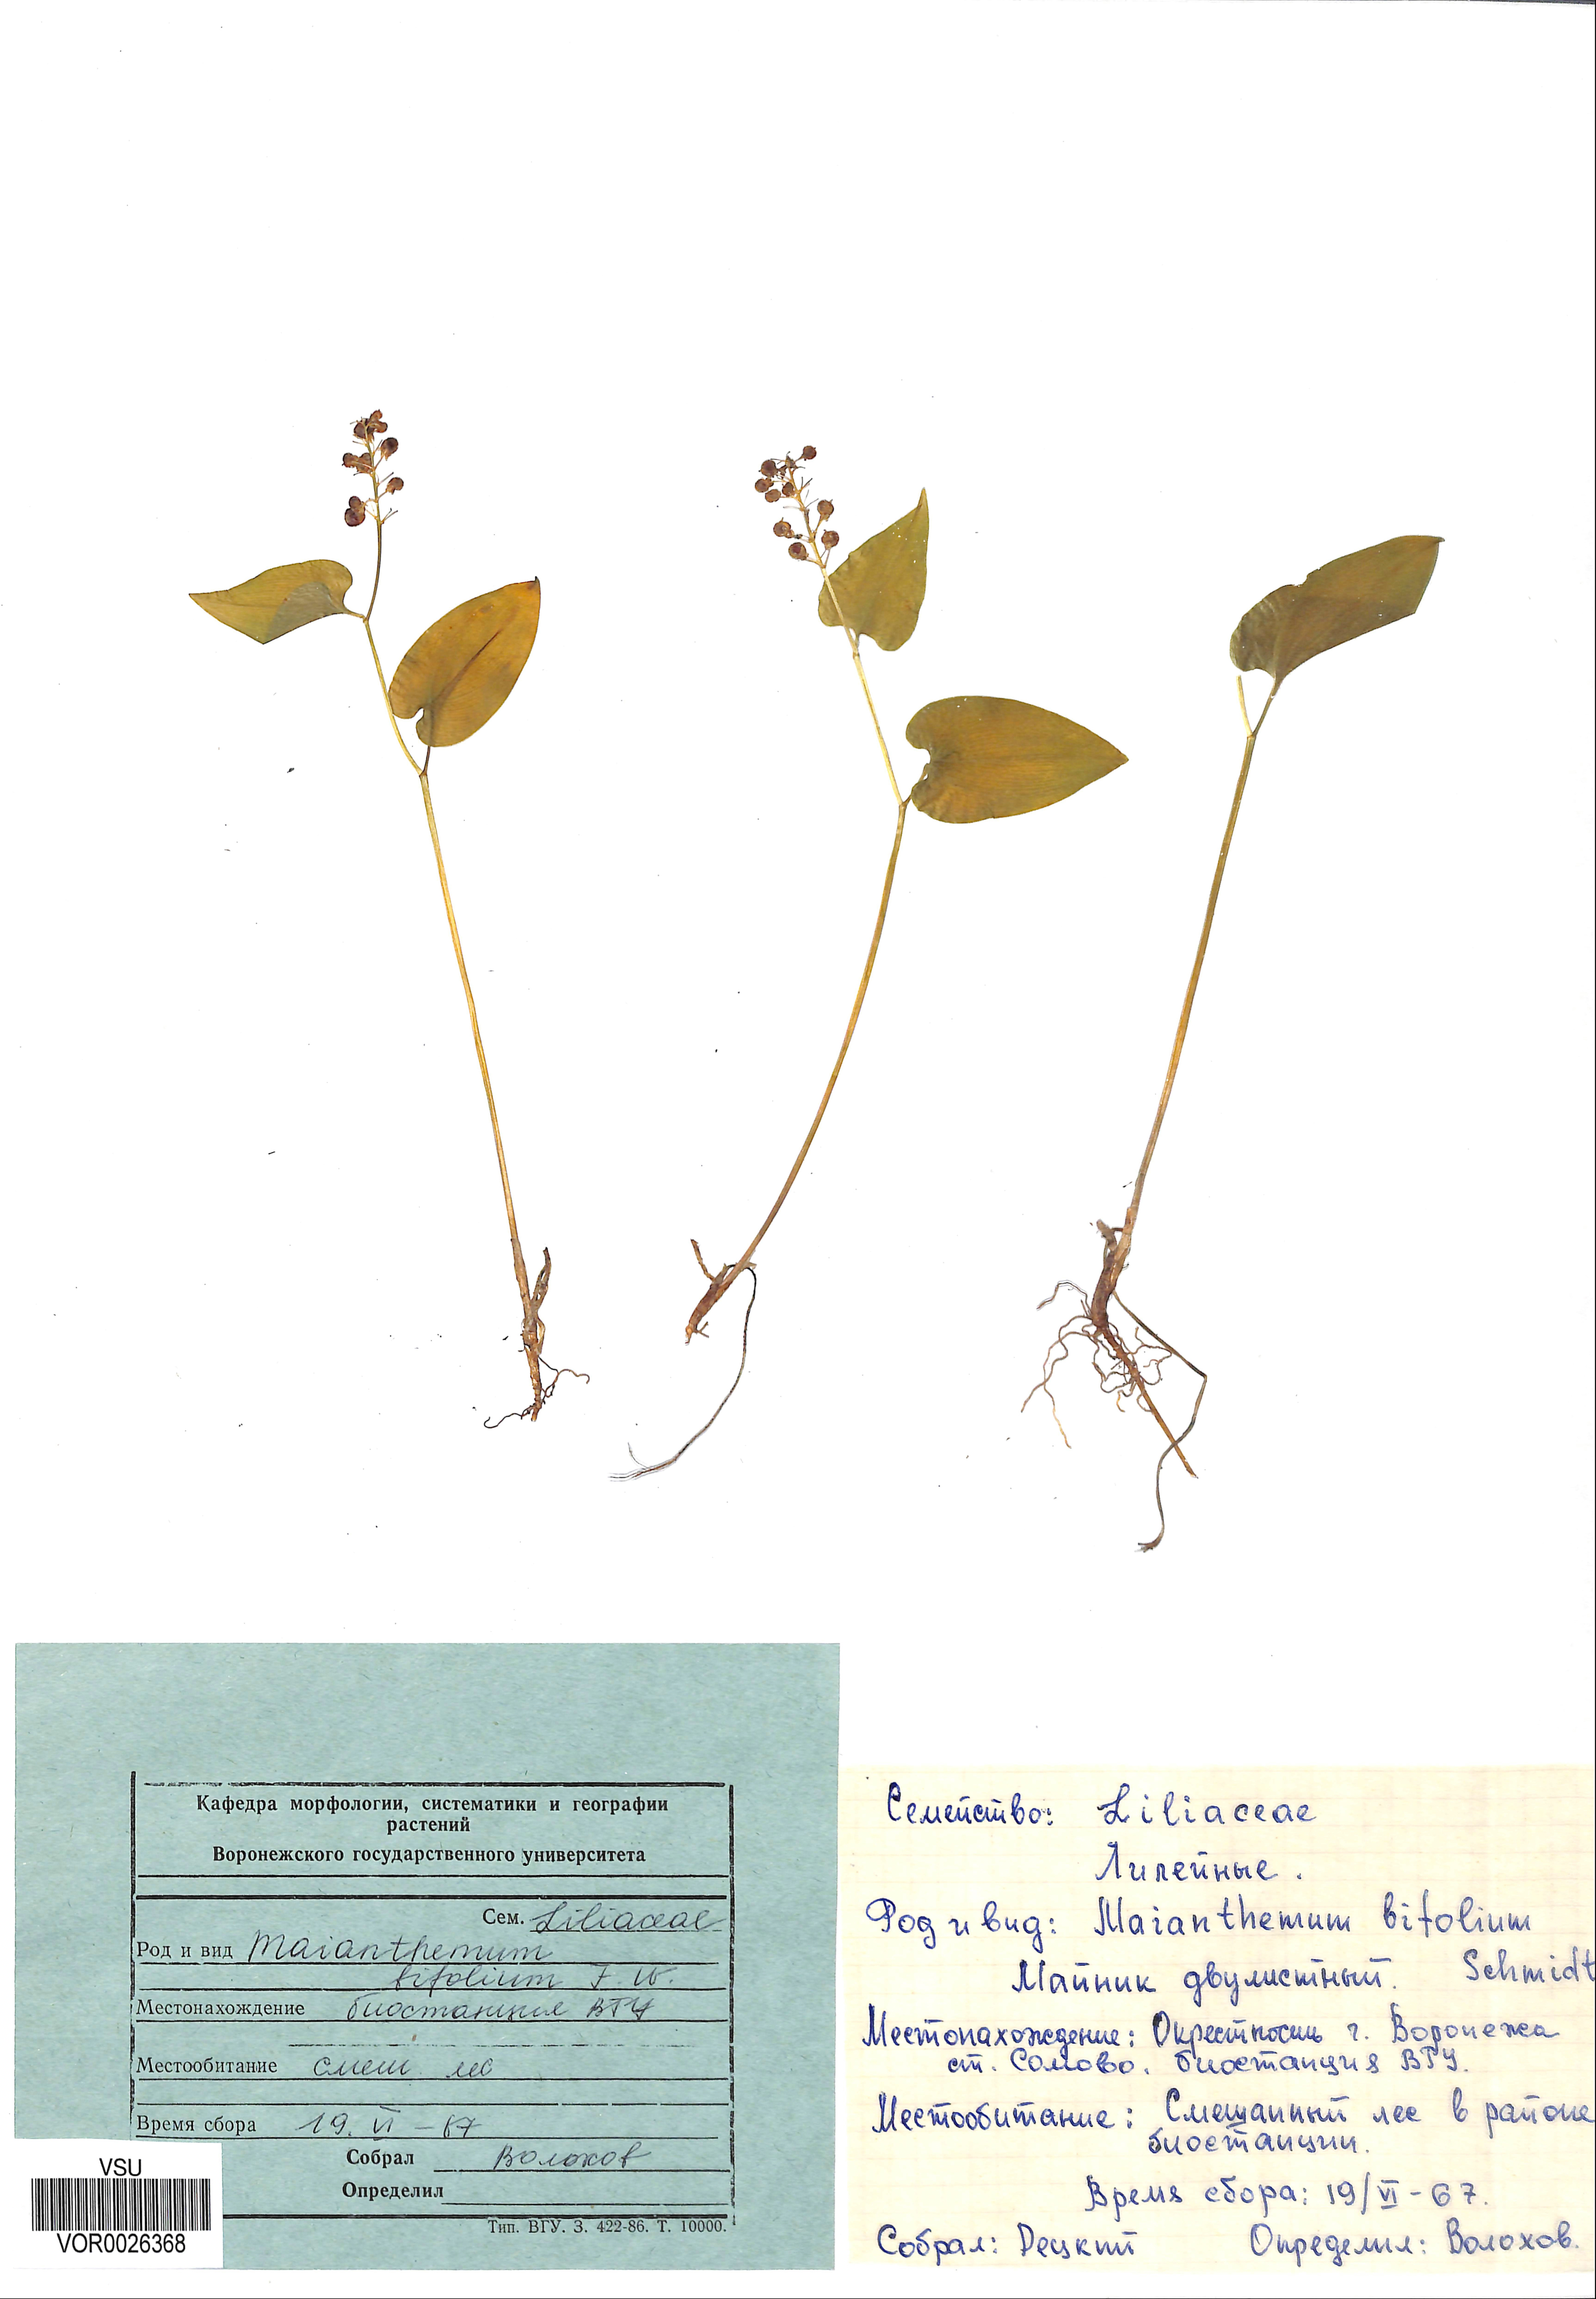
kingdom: Plantae
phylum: Tracheophyta
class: Liliopsida
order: Asparagales
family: Asparagaceae
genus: Maianthemum
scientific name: Maianthemum bifolium
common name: May lily
